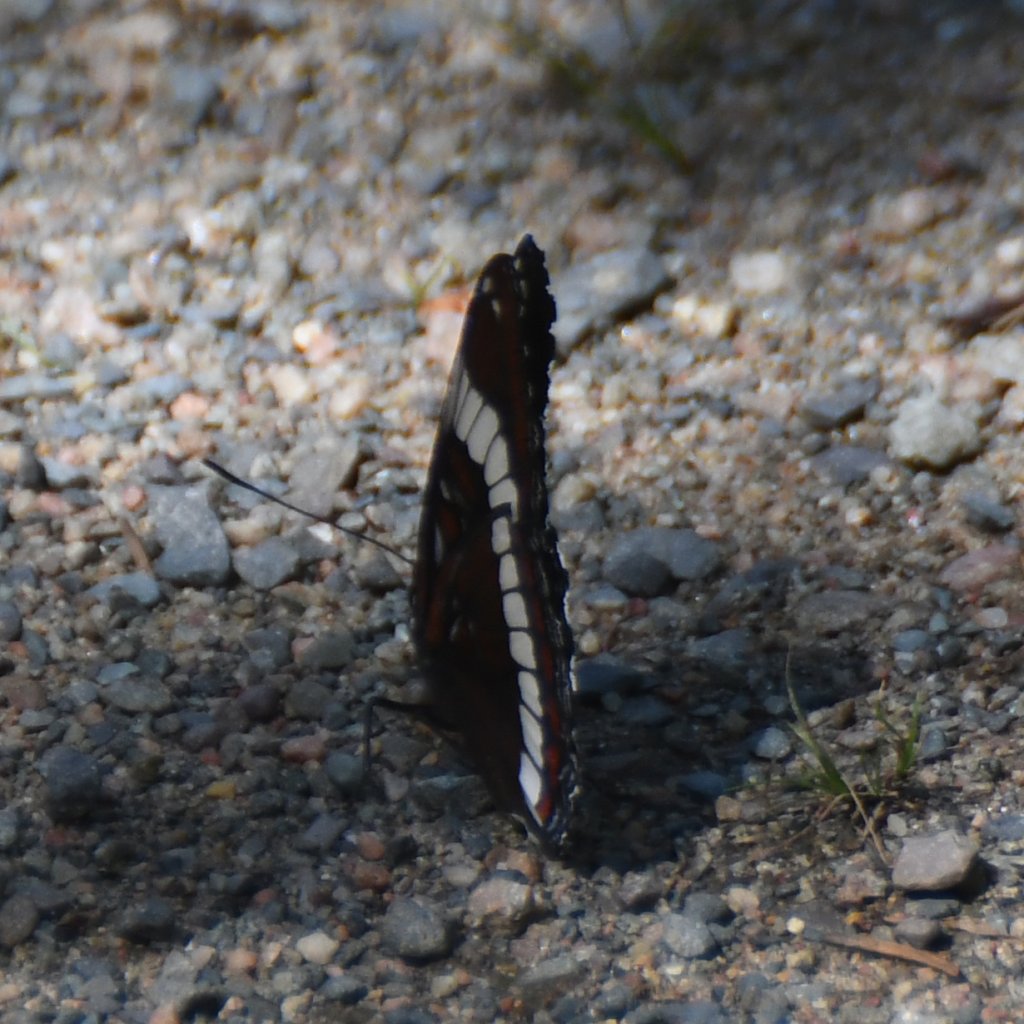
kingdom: Animalia
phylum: Arthropoda
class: Insecta
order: Lepidoptera
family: Nymphalidae
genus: Limenitis
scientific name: Limenitis arthemis
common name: Red-spotted Admiral
